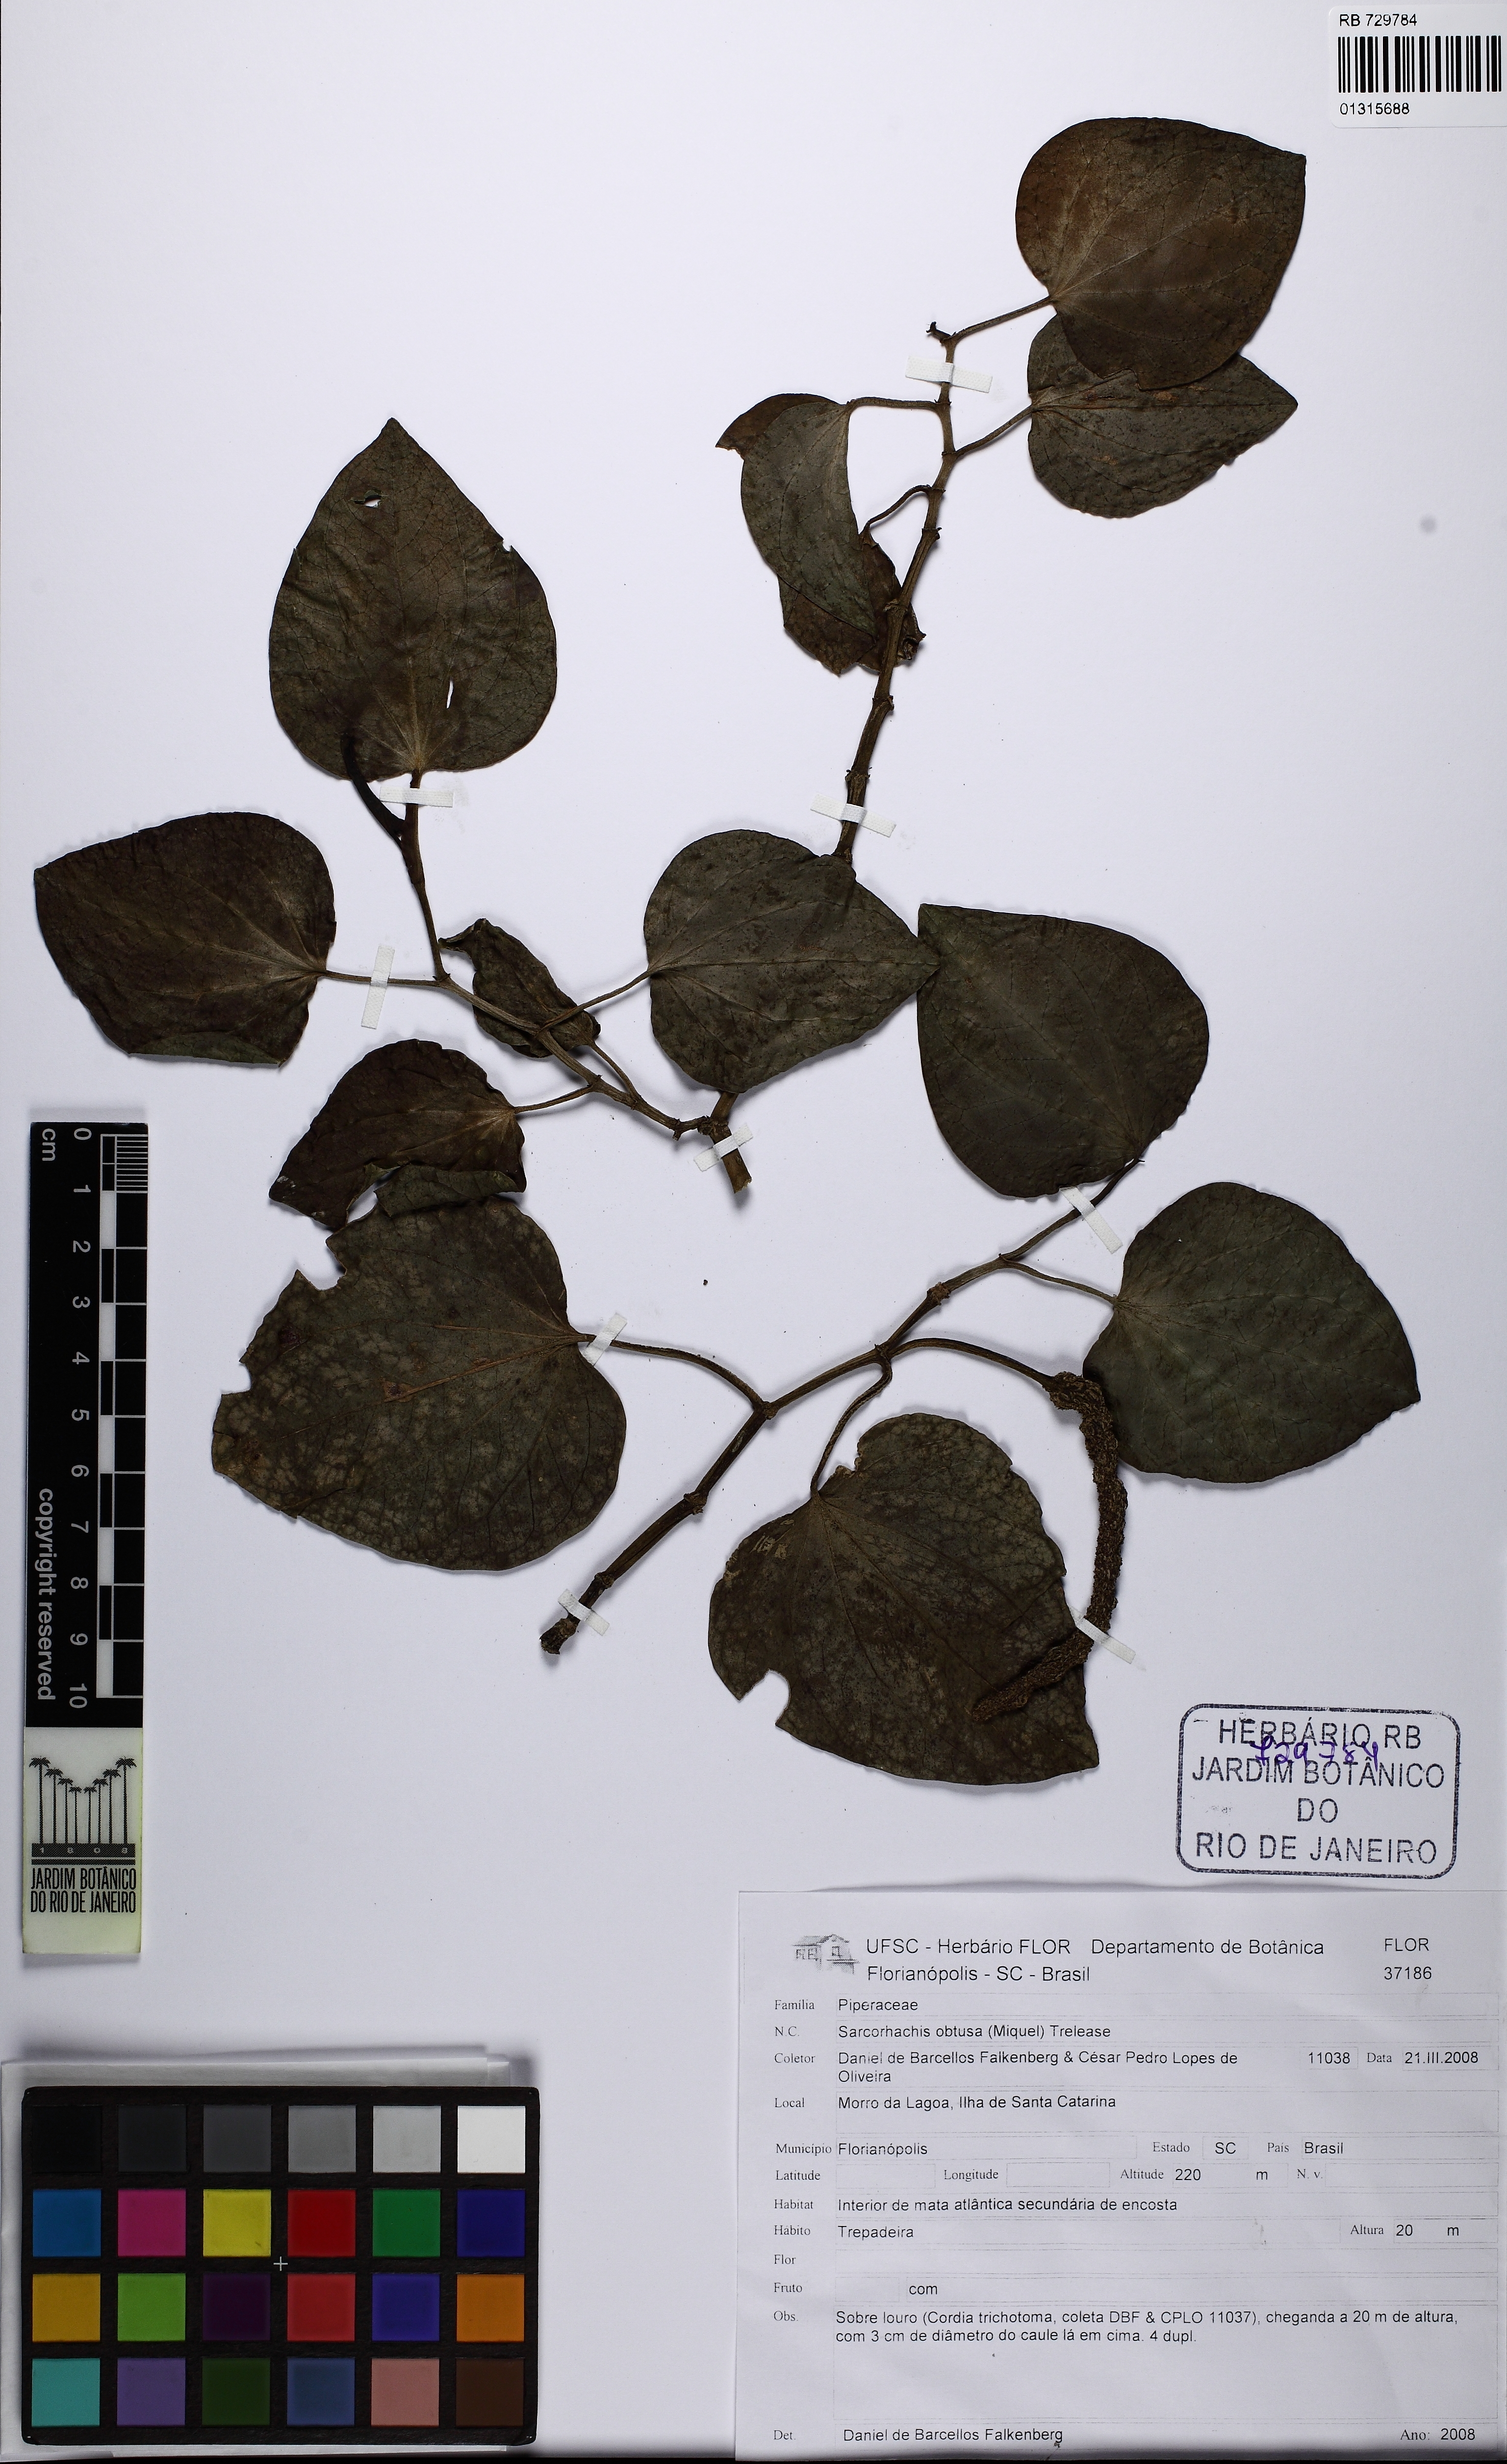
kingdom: Plantae
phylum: Tracheophyta
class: Magnoliopsida
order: Piperales
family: Piperaceae
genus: Manekia
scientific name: Manekia obtusa
